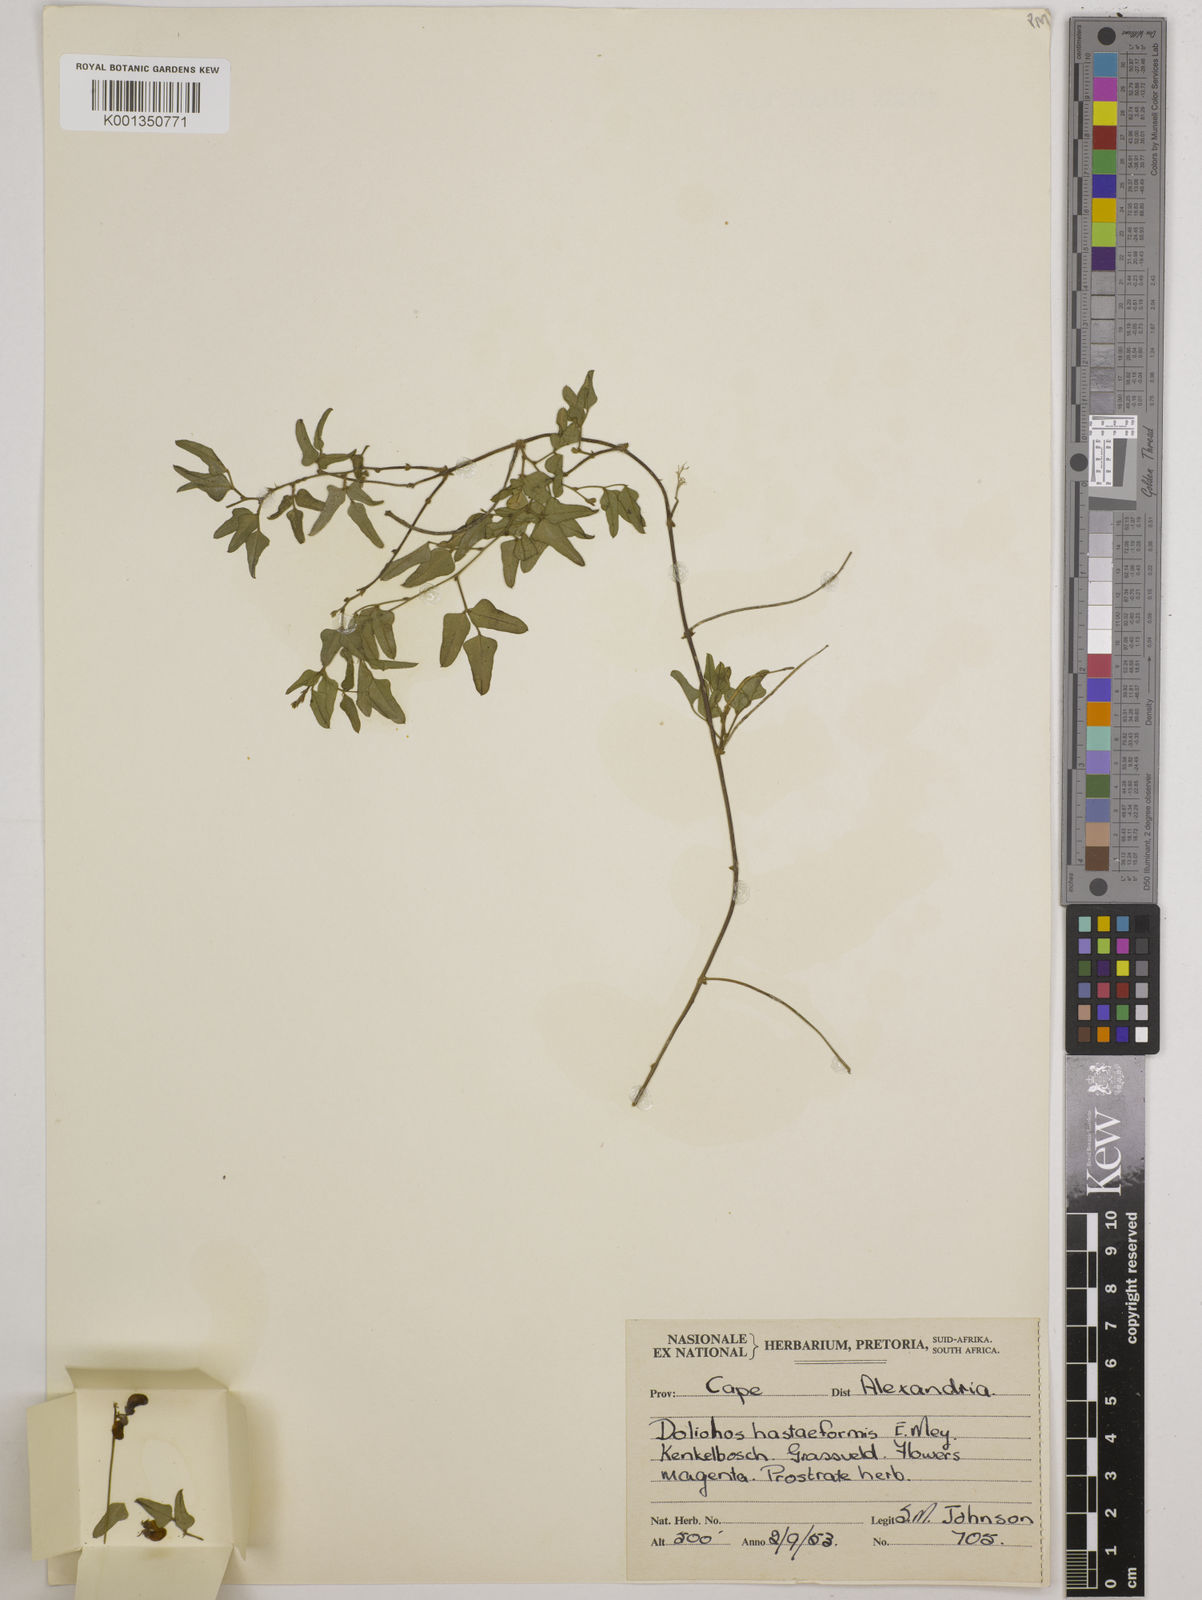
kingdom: Plantae
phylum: Tracheophyta
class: Magnoliopsida
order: Fabales
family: Fabaceae
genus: Dolichos
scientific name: Dolichos
